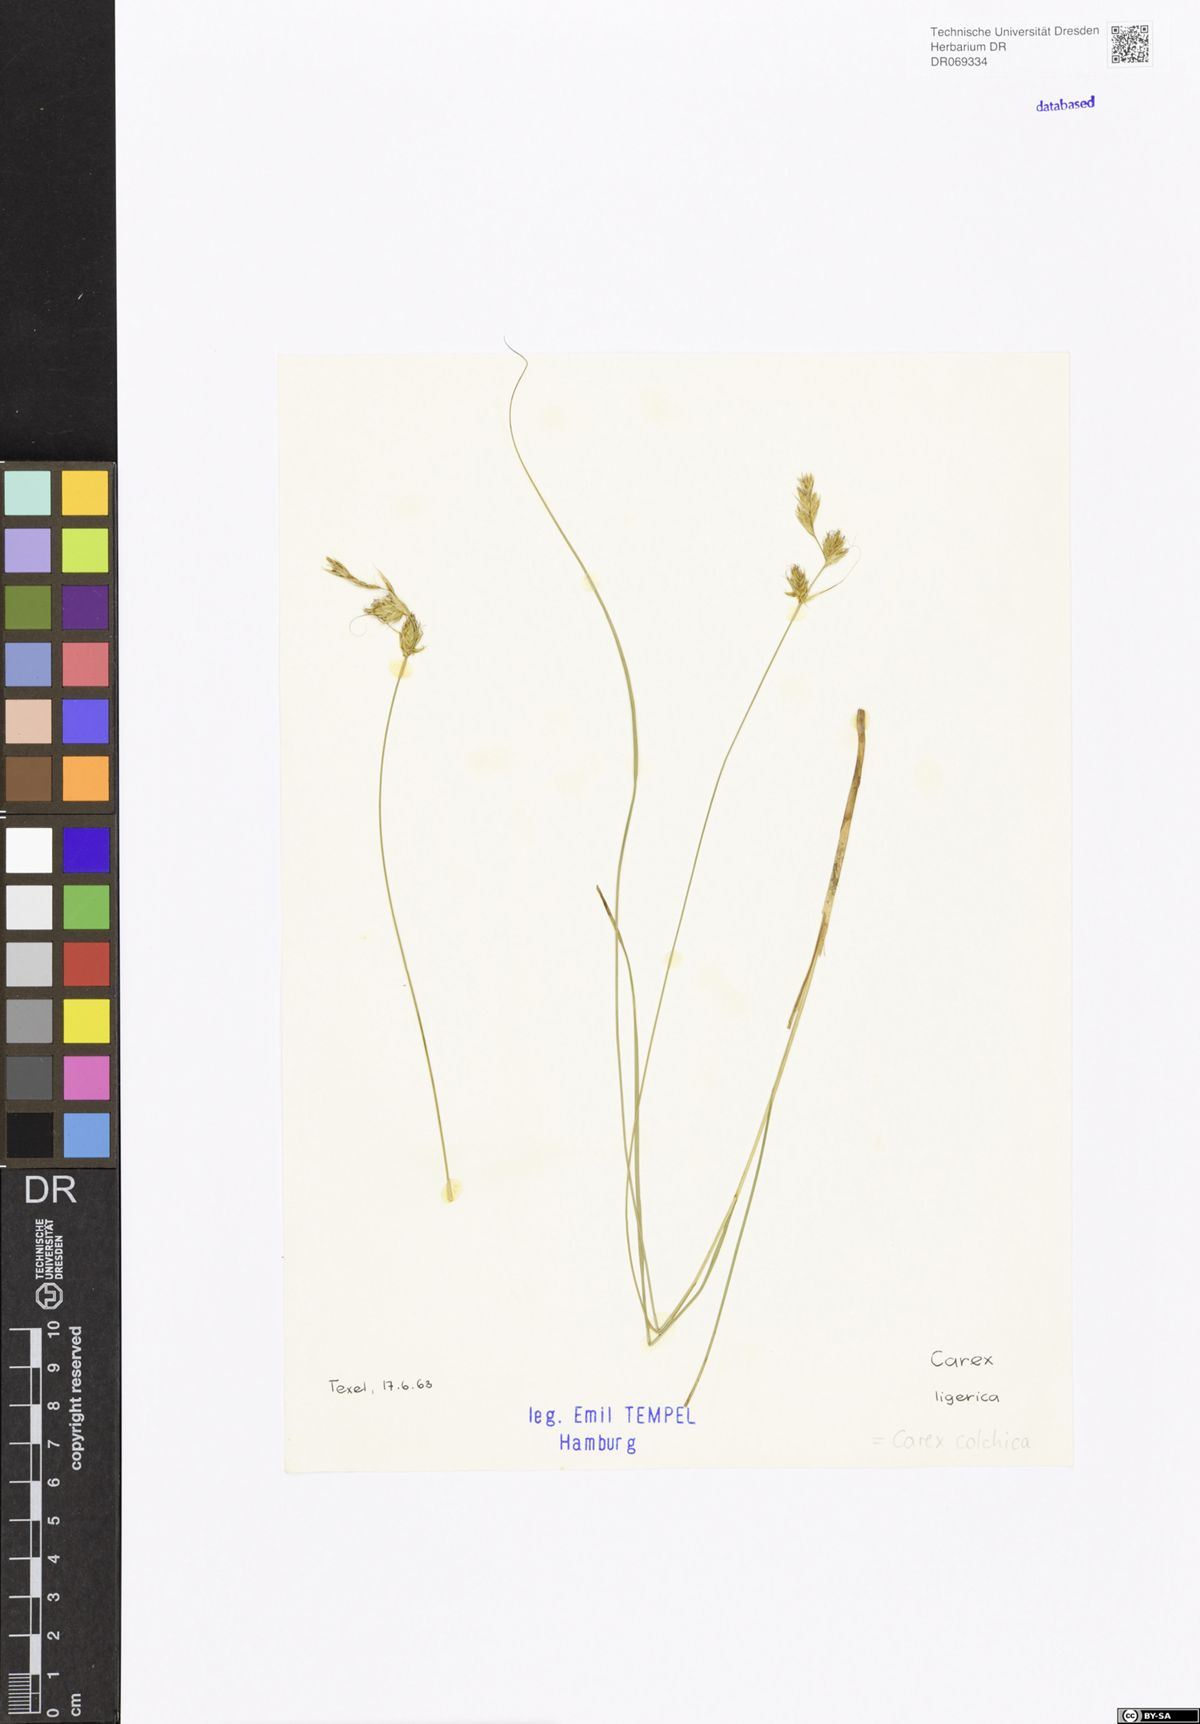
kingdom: Plantae
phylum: Tracheophyta
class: Liliopsida
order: Poales
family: Cyperaceae
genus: Carex
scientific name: Carex colchica
